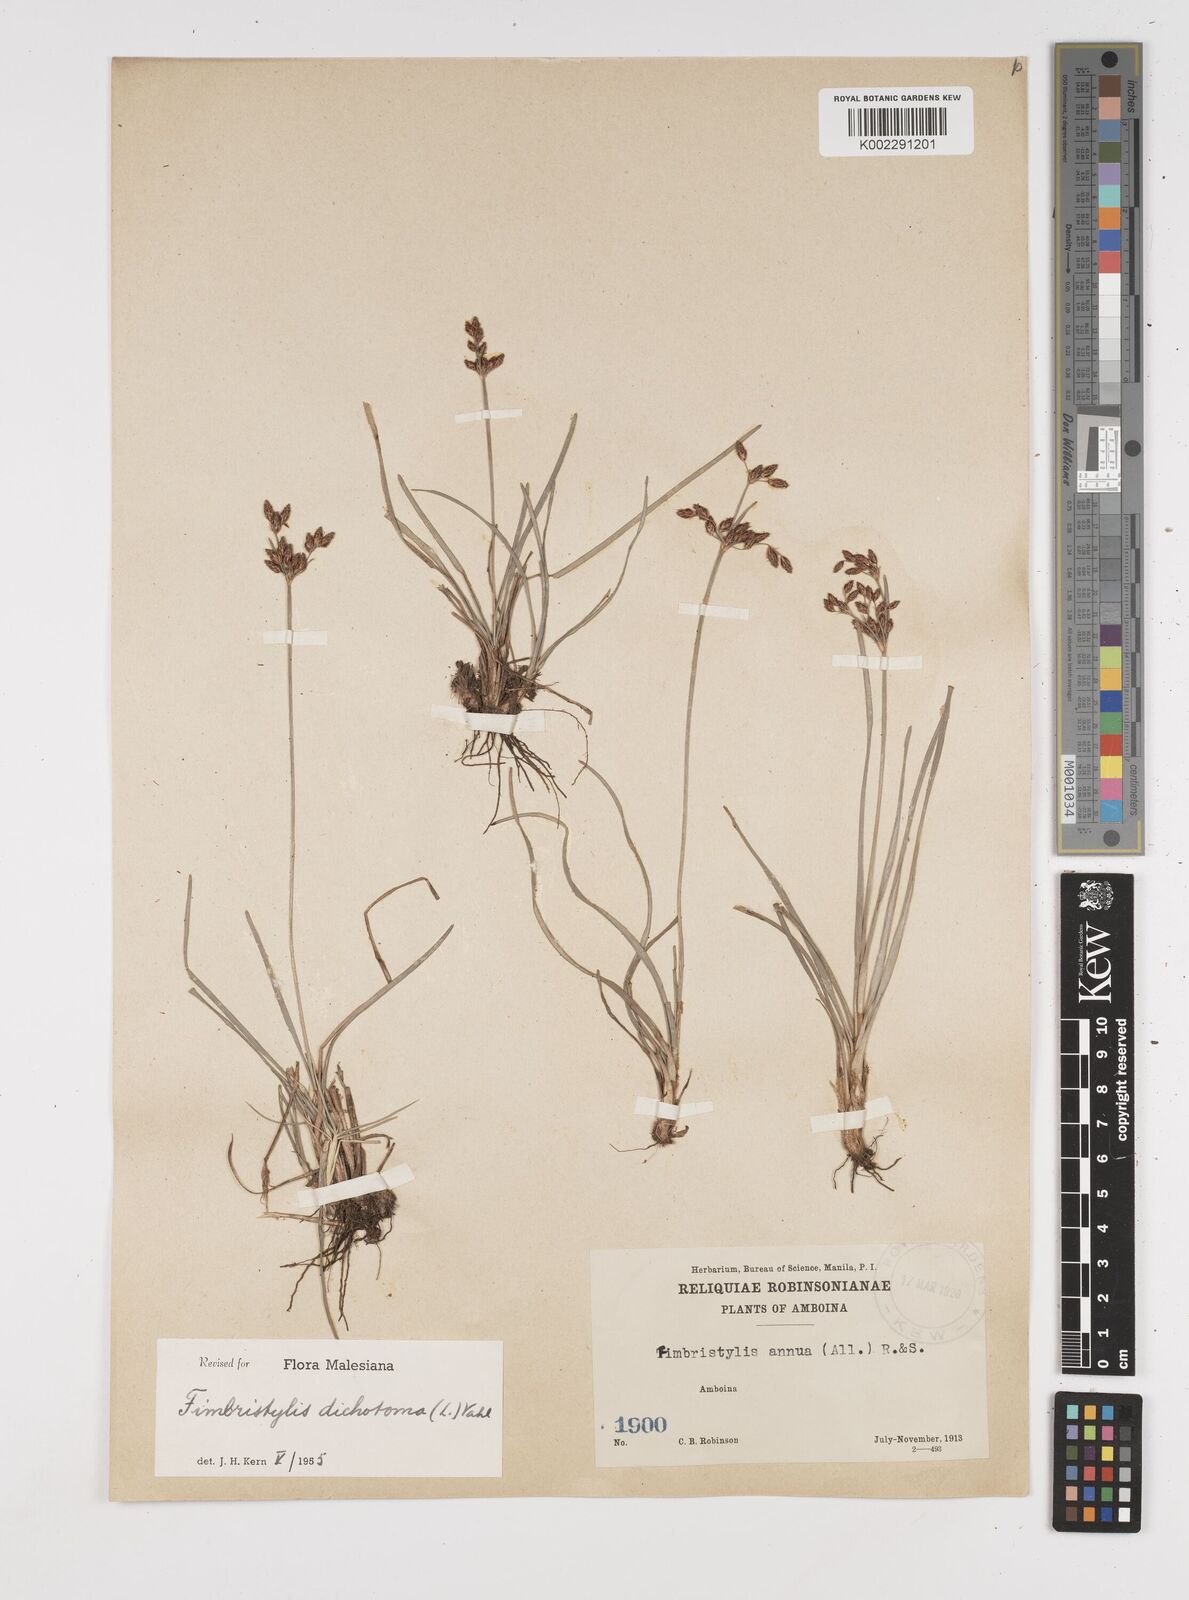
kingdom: Plantae
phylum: Tracheophyta
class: Liliopsida
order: Poales
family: Cyperaceae
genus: Fimbristylis
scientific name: Fimbristylis dichotoma
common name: Forked fimbry
